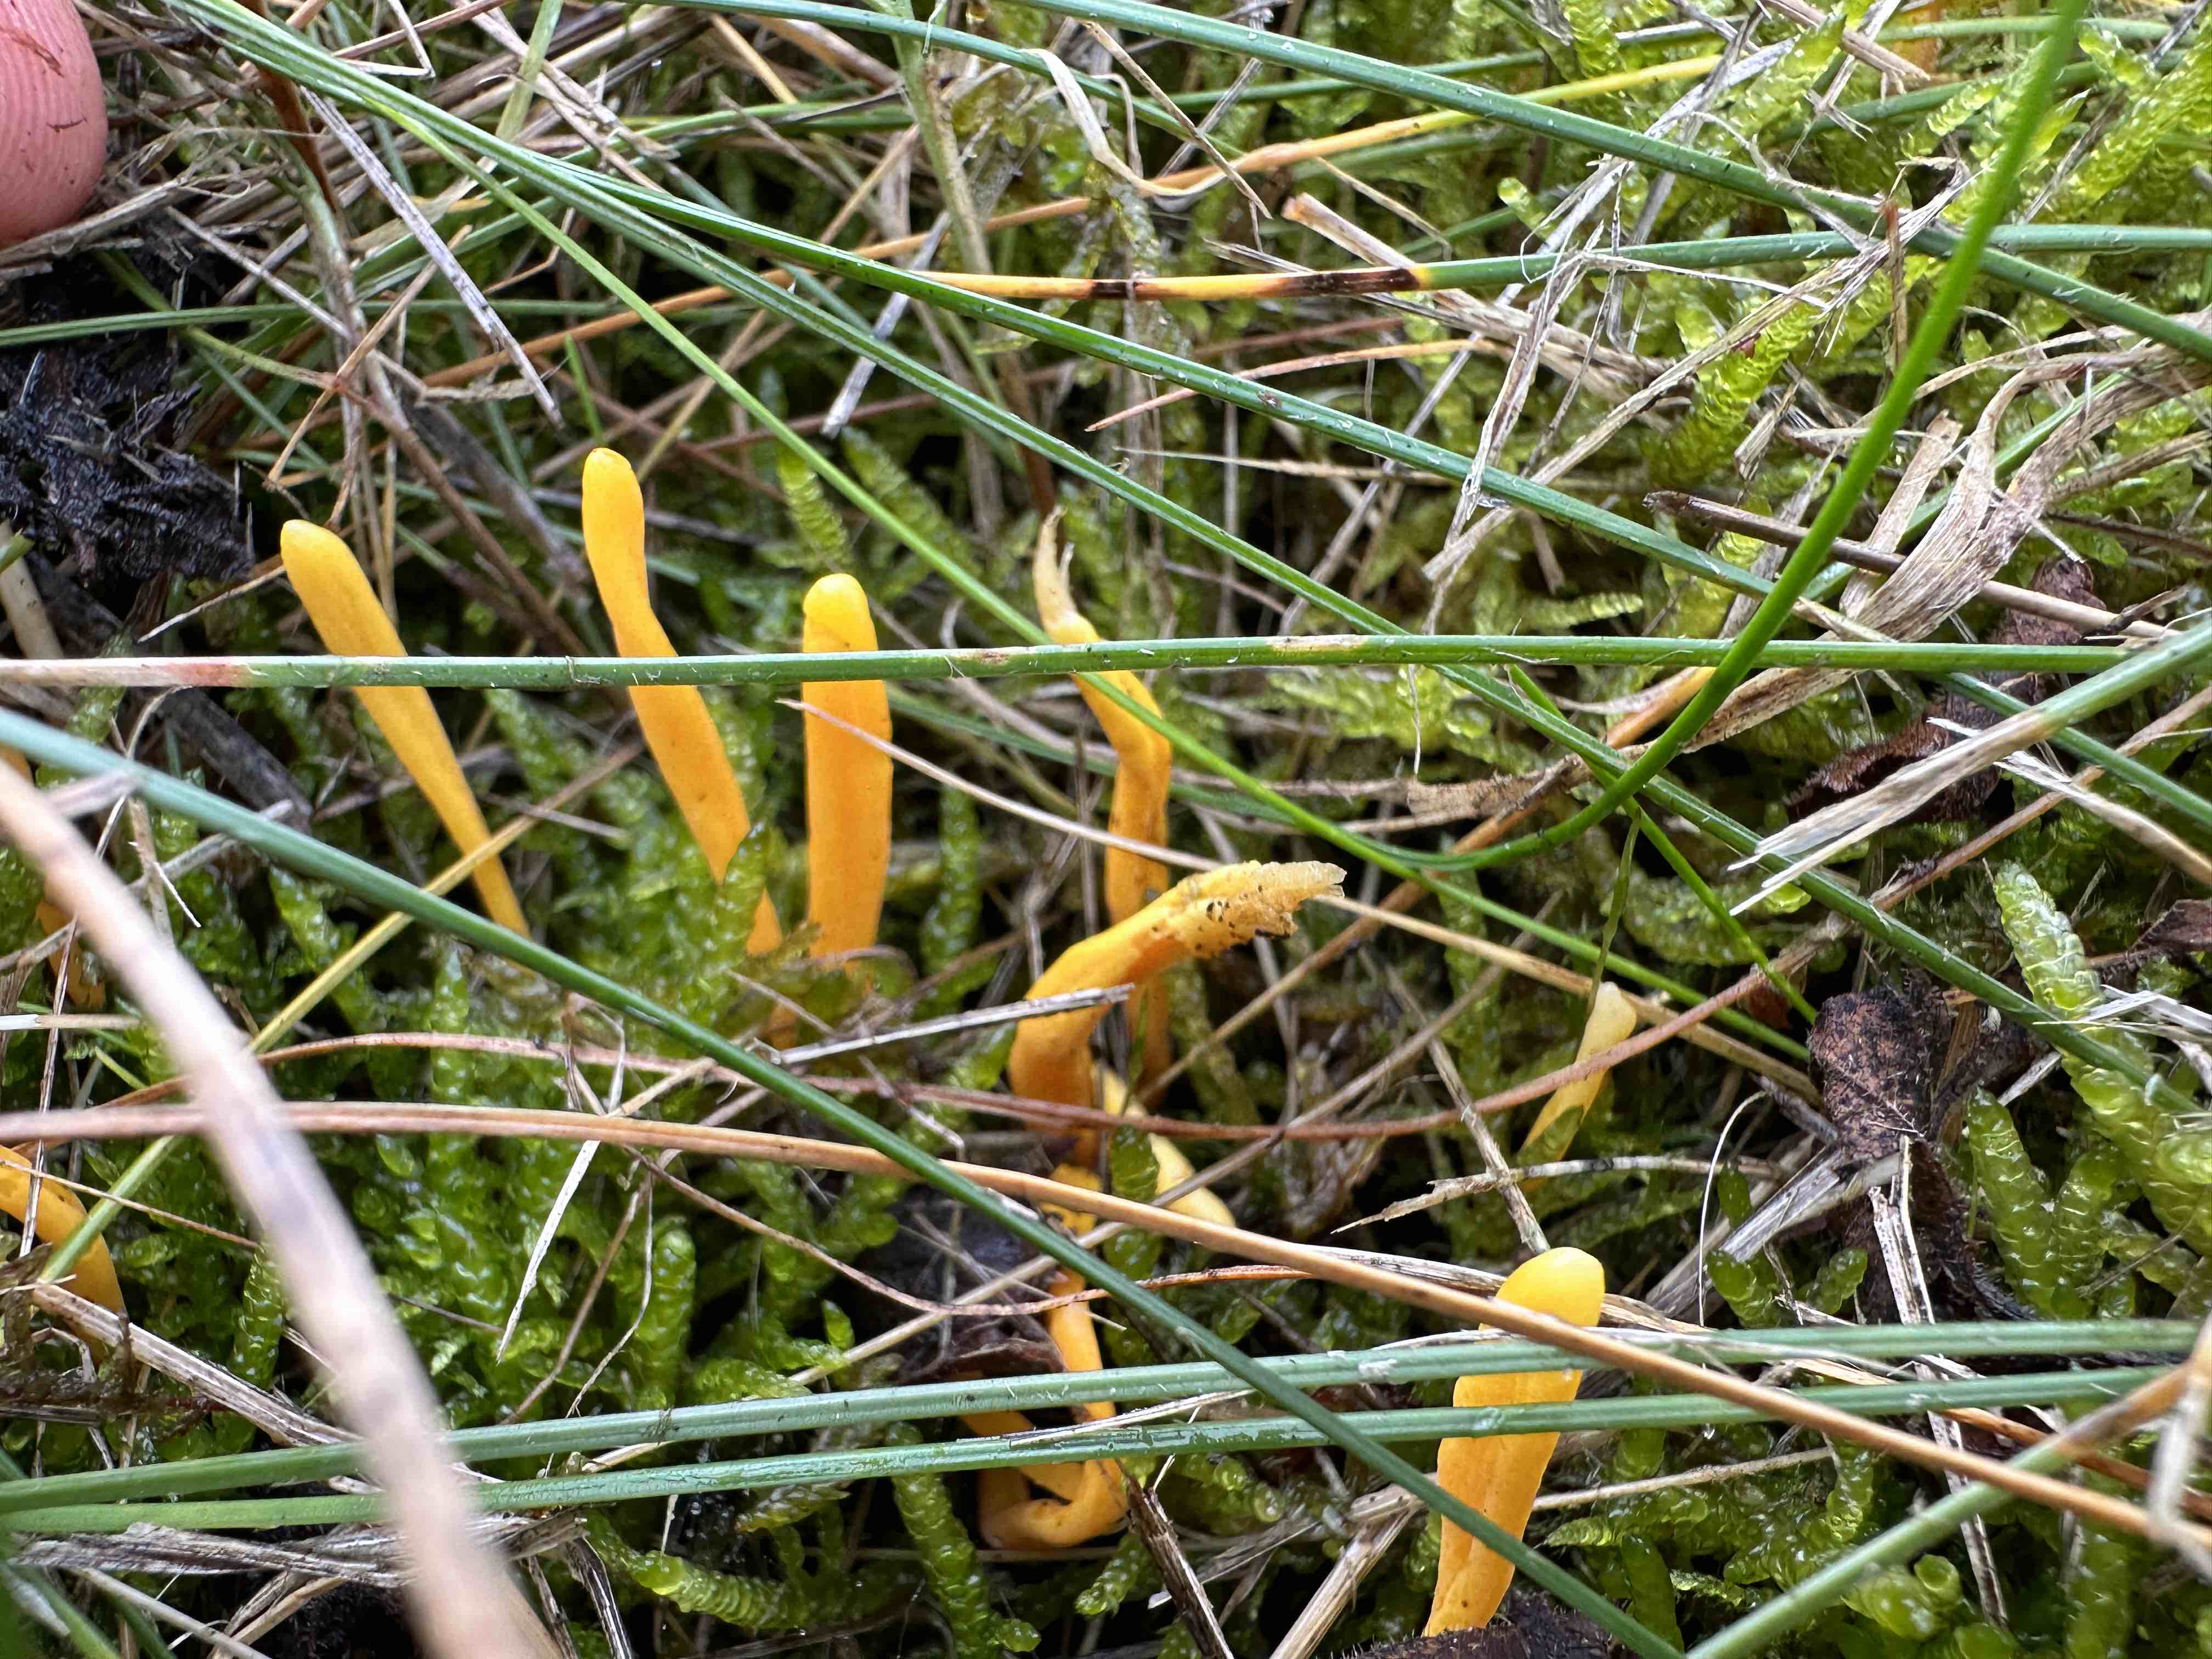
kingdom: Fungi
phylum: Basidiomycota
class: Agaricomycetes
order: Agaricales
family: Clavariaceae
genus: Clavulinopsis
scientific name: Clavulinopsis laeticolor
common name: flamme-køllesvamp
